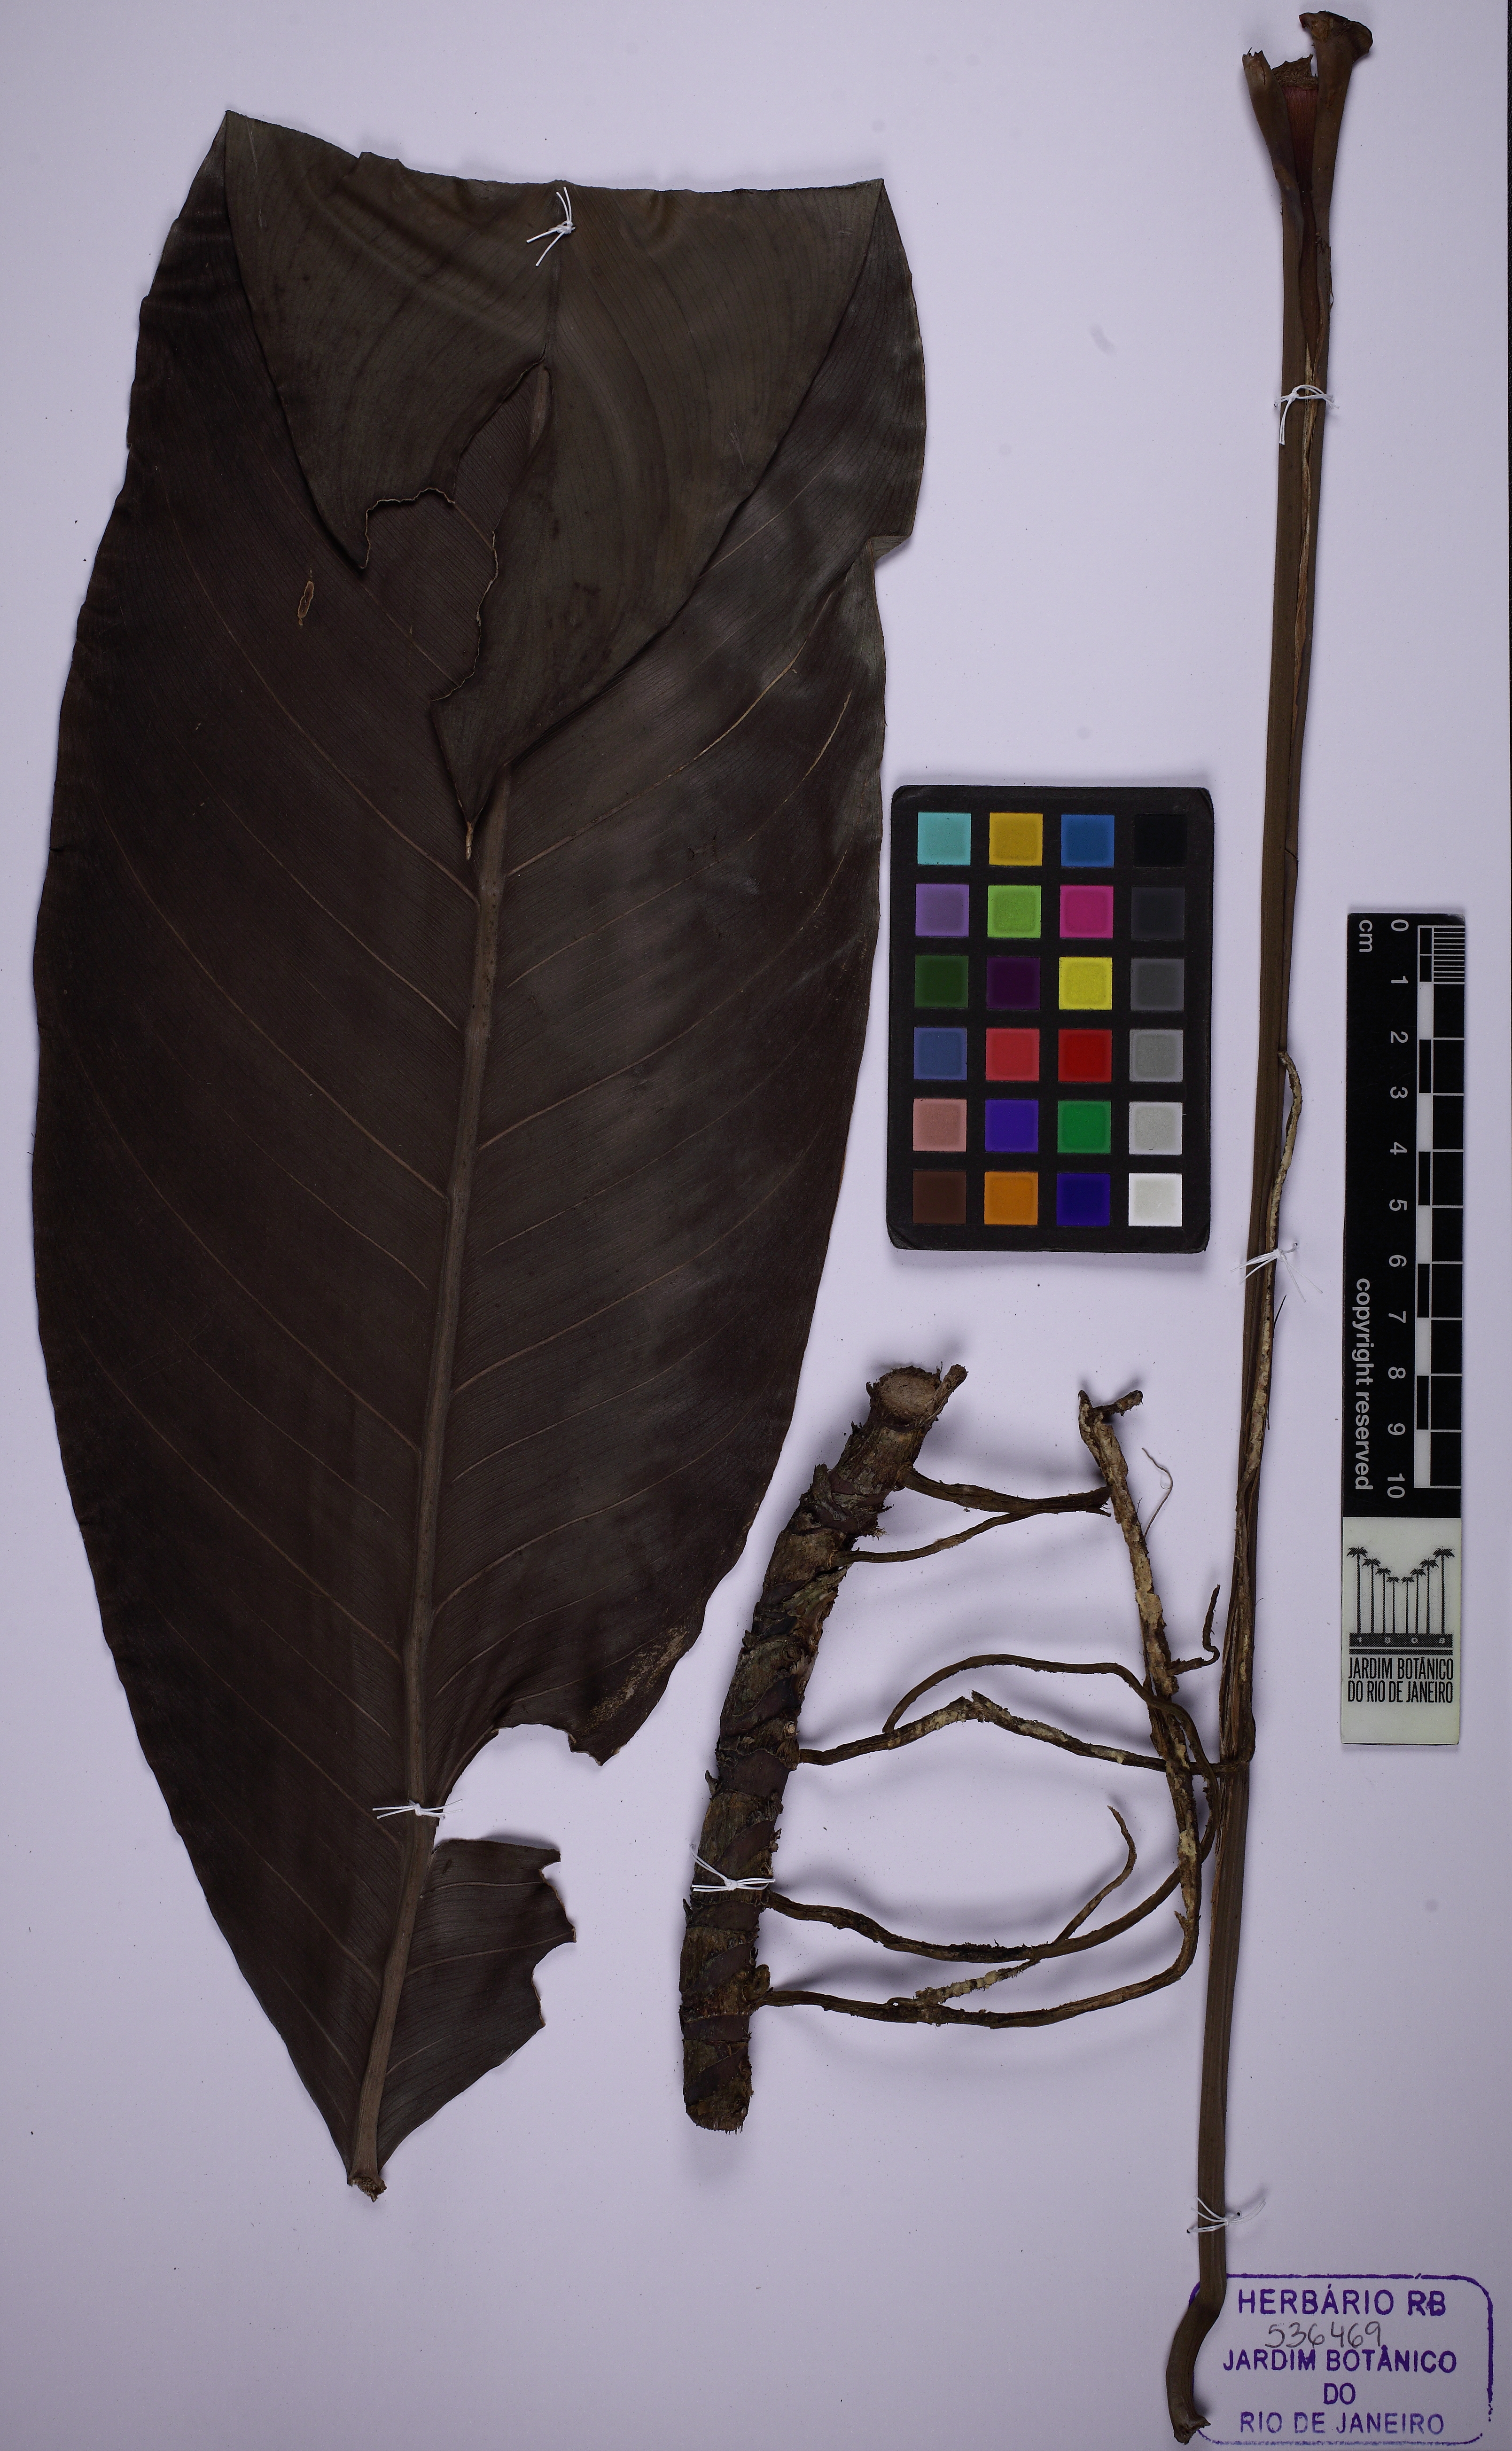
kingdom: Plantae
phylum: Tracheophyta
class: Liliopsida
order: Alismatales
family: Araceae
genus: Rhodospatha
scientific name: Rhodospatha latifolia
